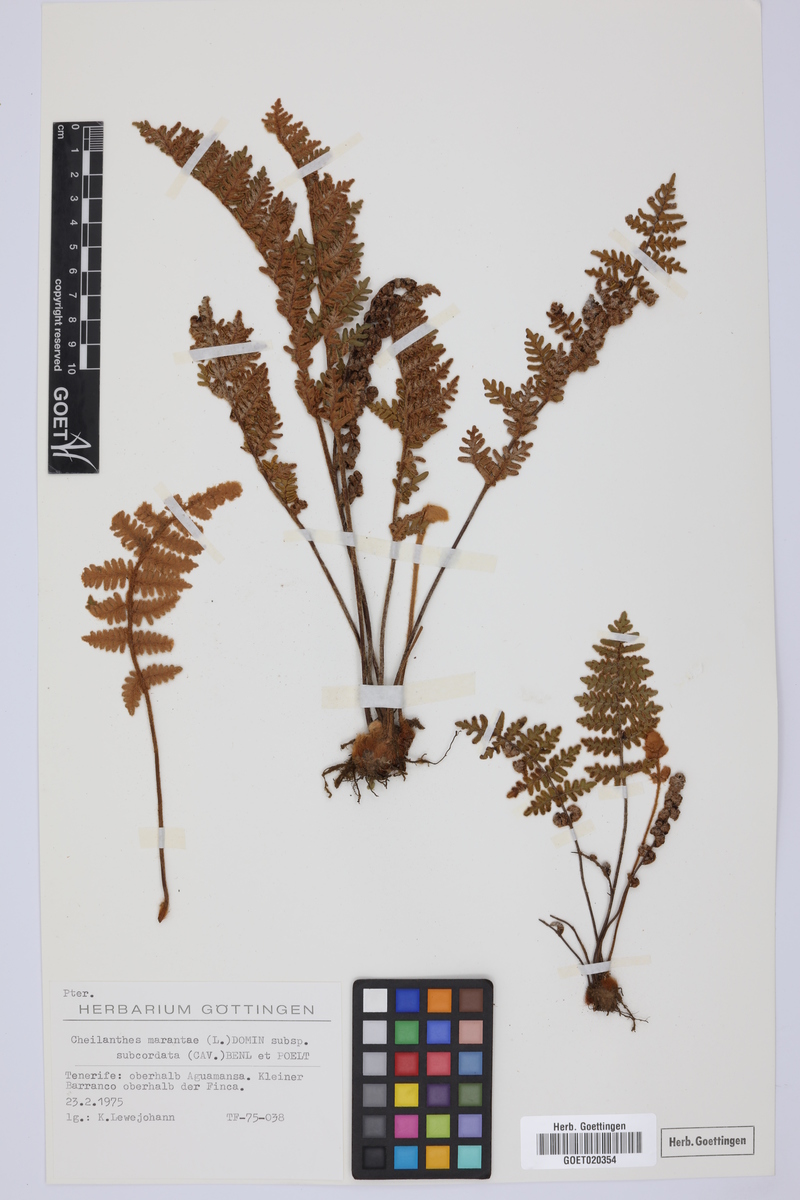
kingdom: Plantae
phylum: Tracheophyta
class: Polypodiopsida
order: Polypodiales
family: Pteridaceae
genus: Paragymnopteris
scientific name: Paragymnopteris marantae
